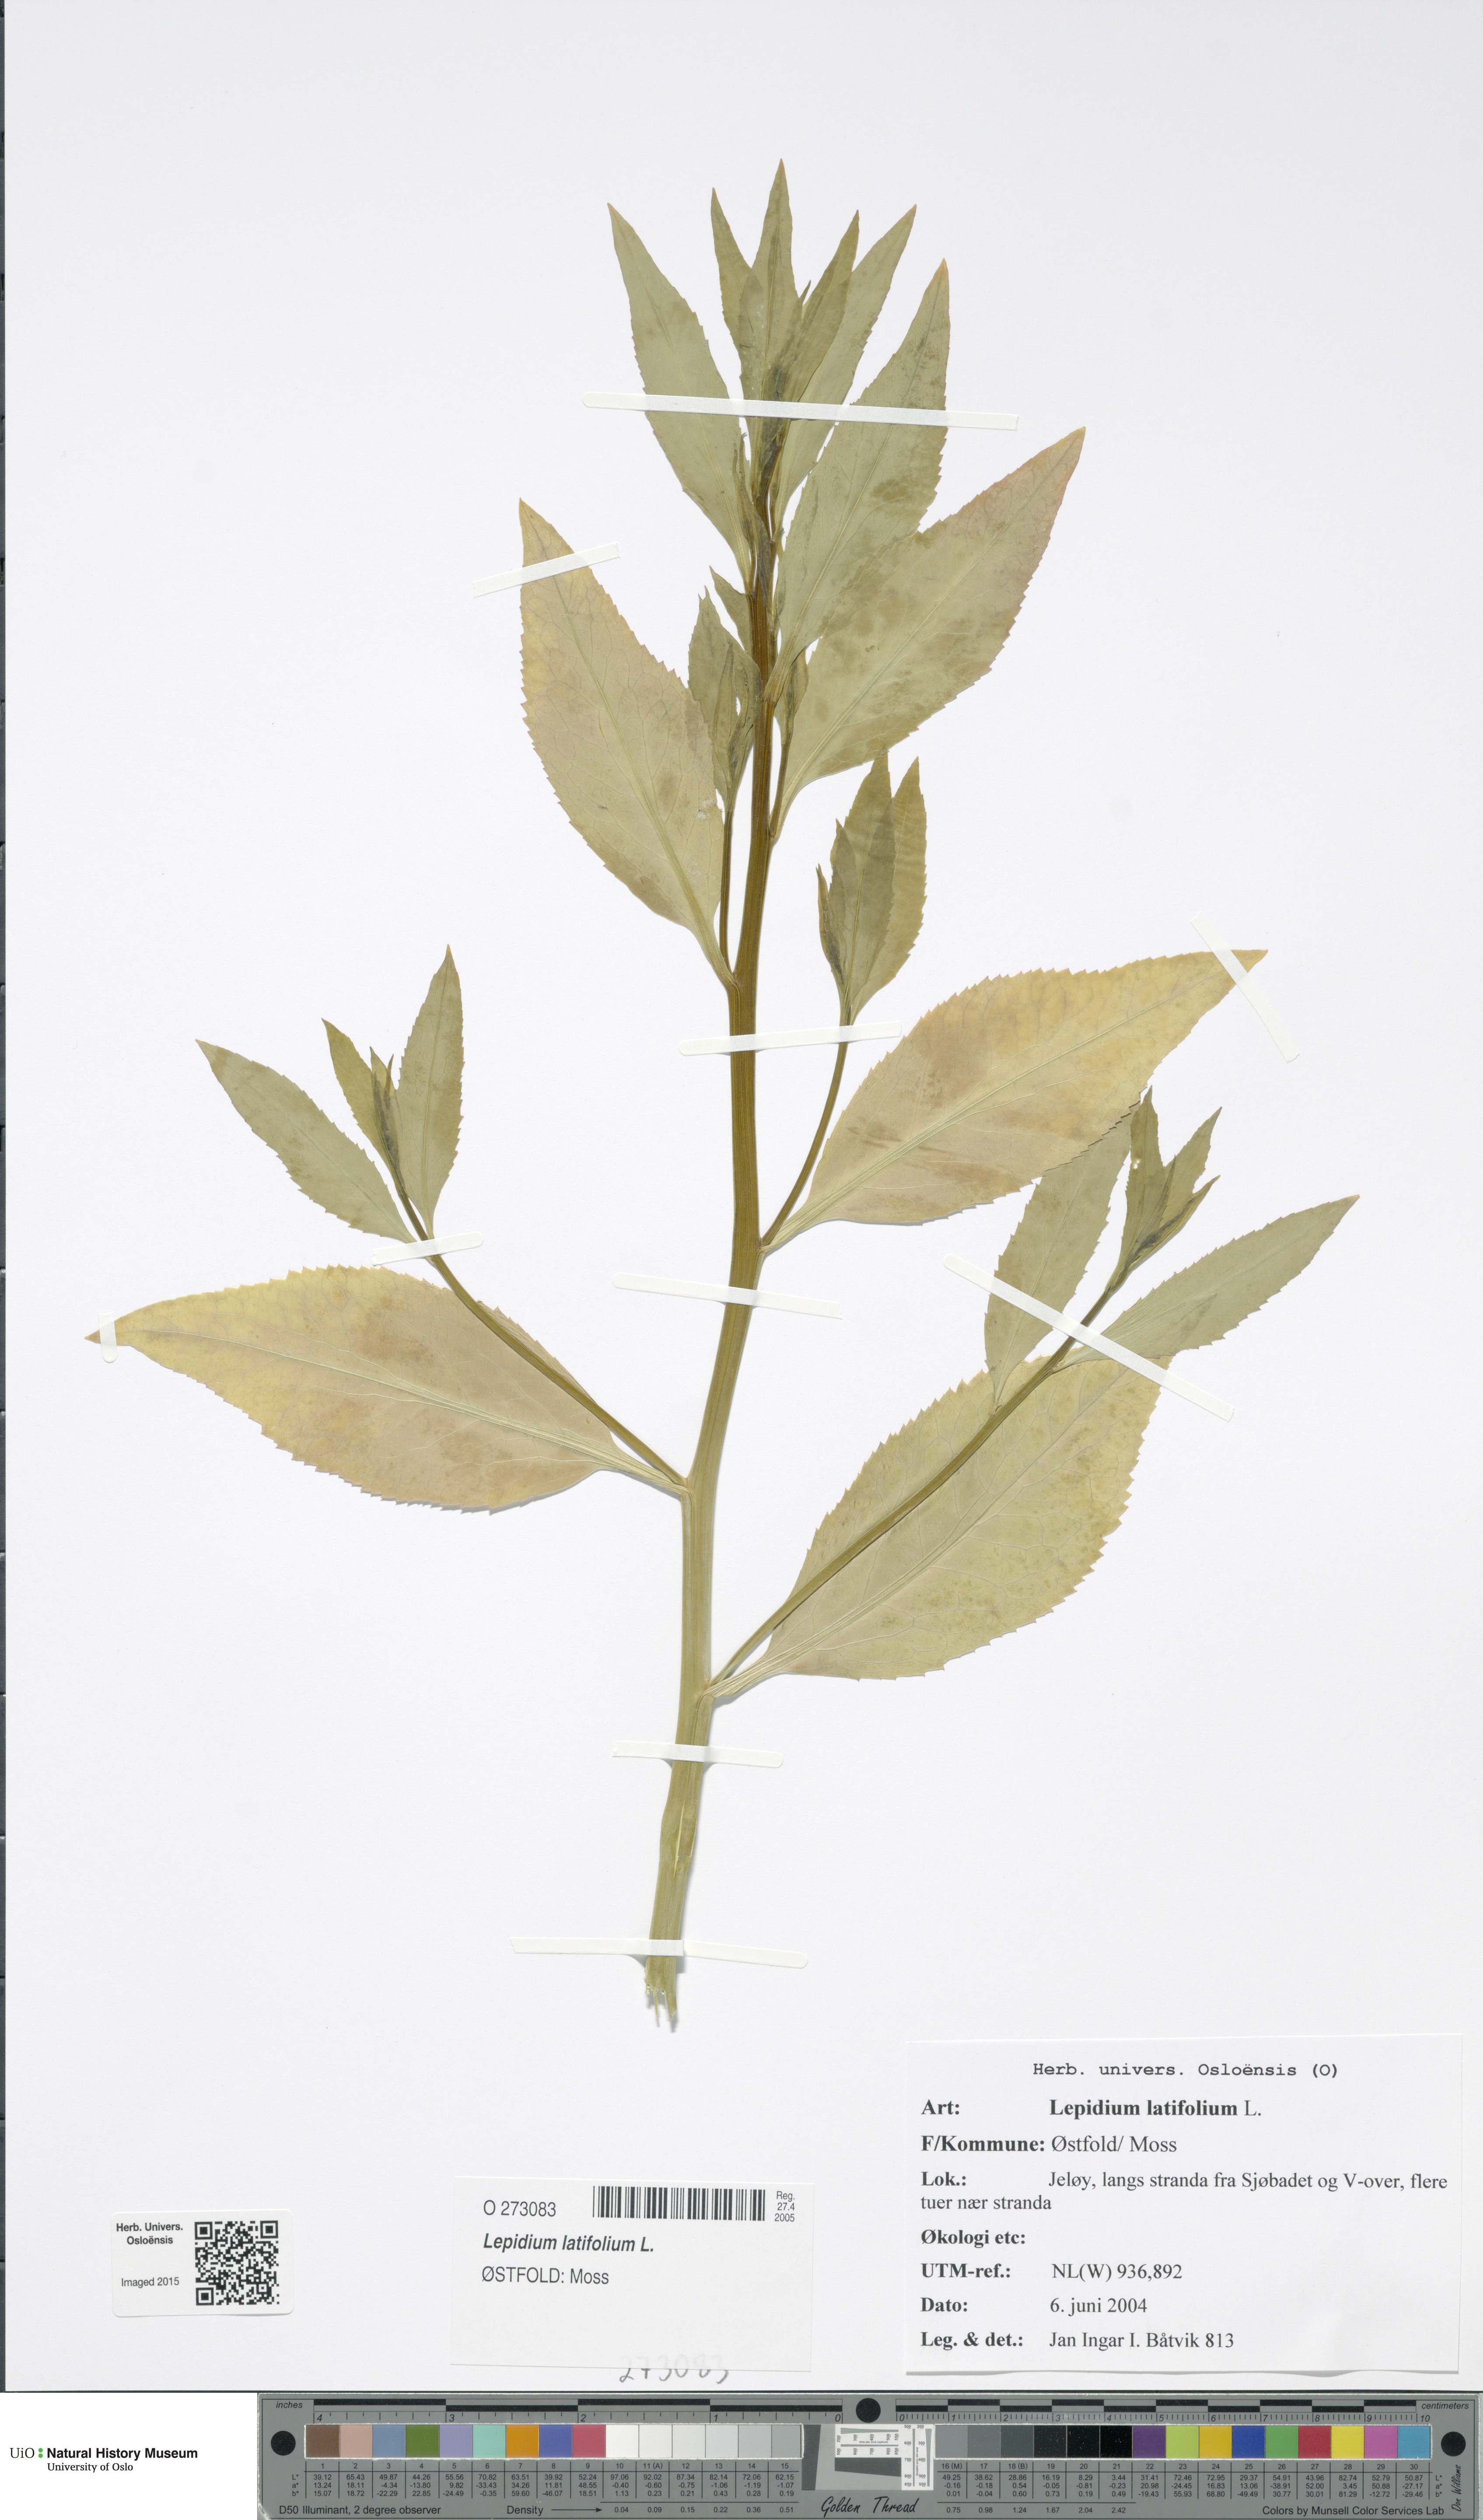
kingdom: Plantae
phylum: Tracheophyta
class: Magnoliopsida
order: Brassicales
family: Brassicaceae
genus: Lepidium
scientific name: Lepidium latifolium
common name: Dittander
